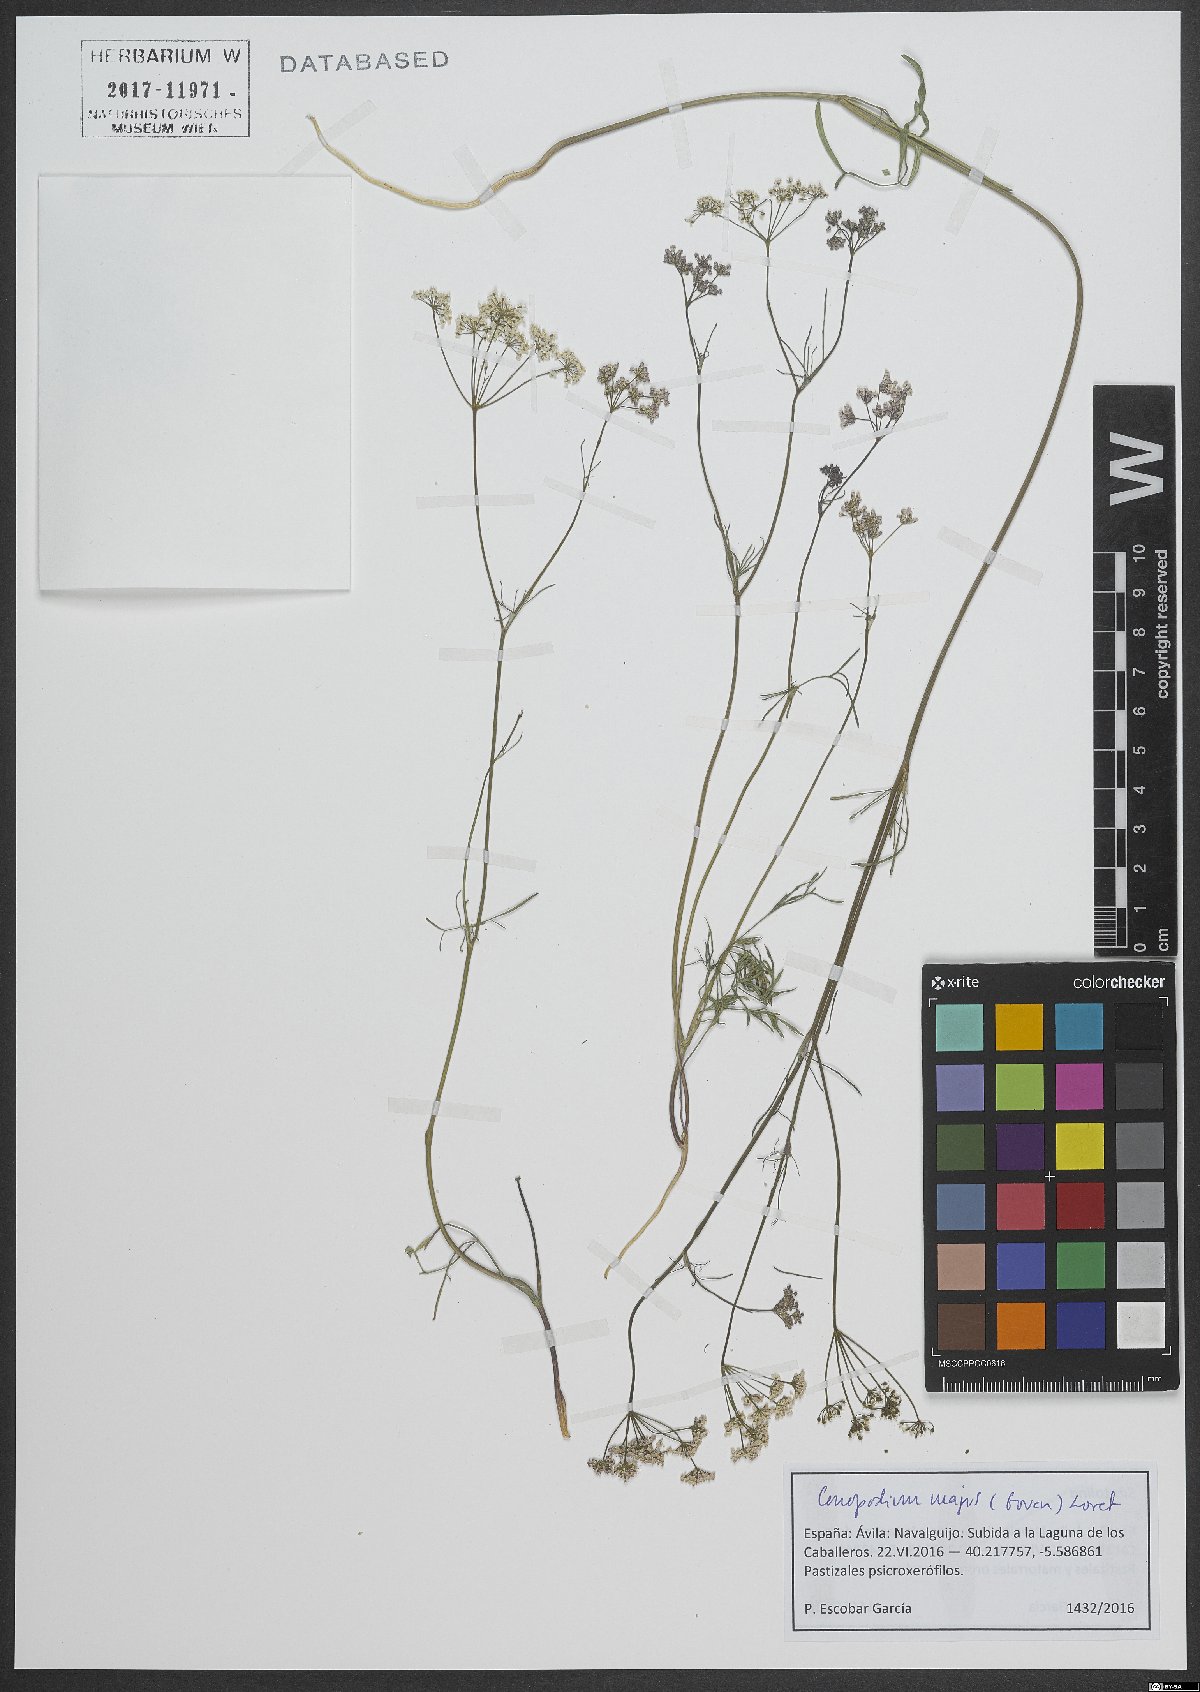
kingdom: Plantae
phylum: Tracheophyta
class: Magnoliopsida
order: Apiales
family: Apiaceae
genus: Conopodium
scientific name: Conopodium majus
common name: Pignut
